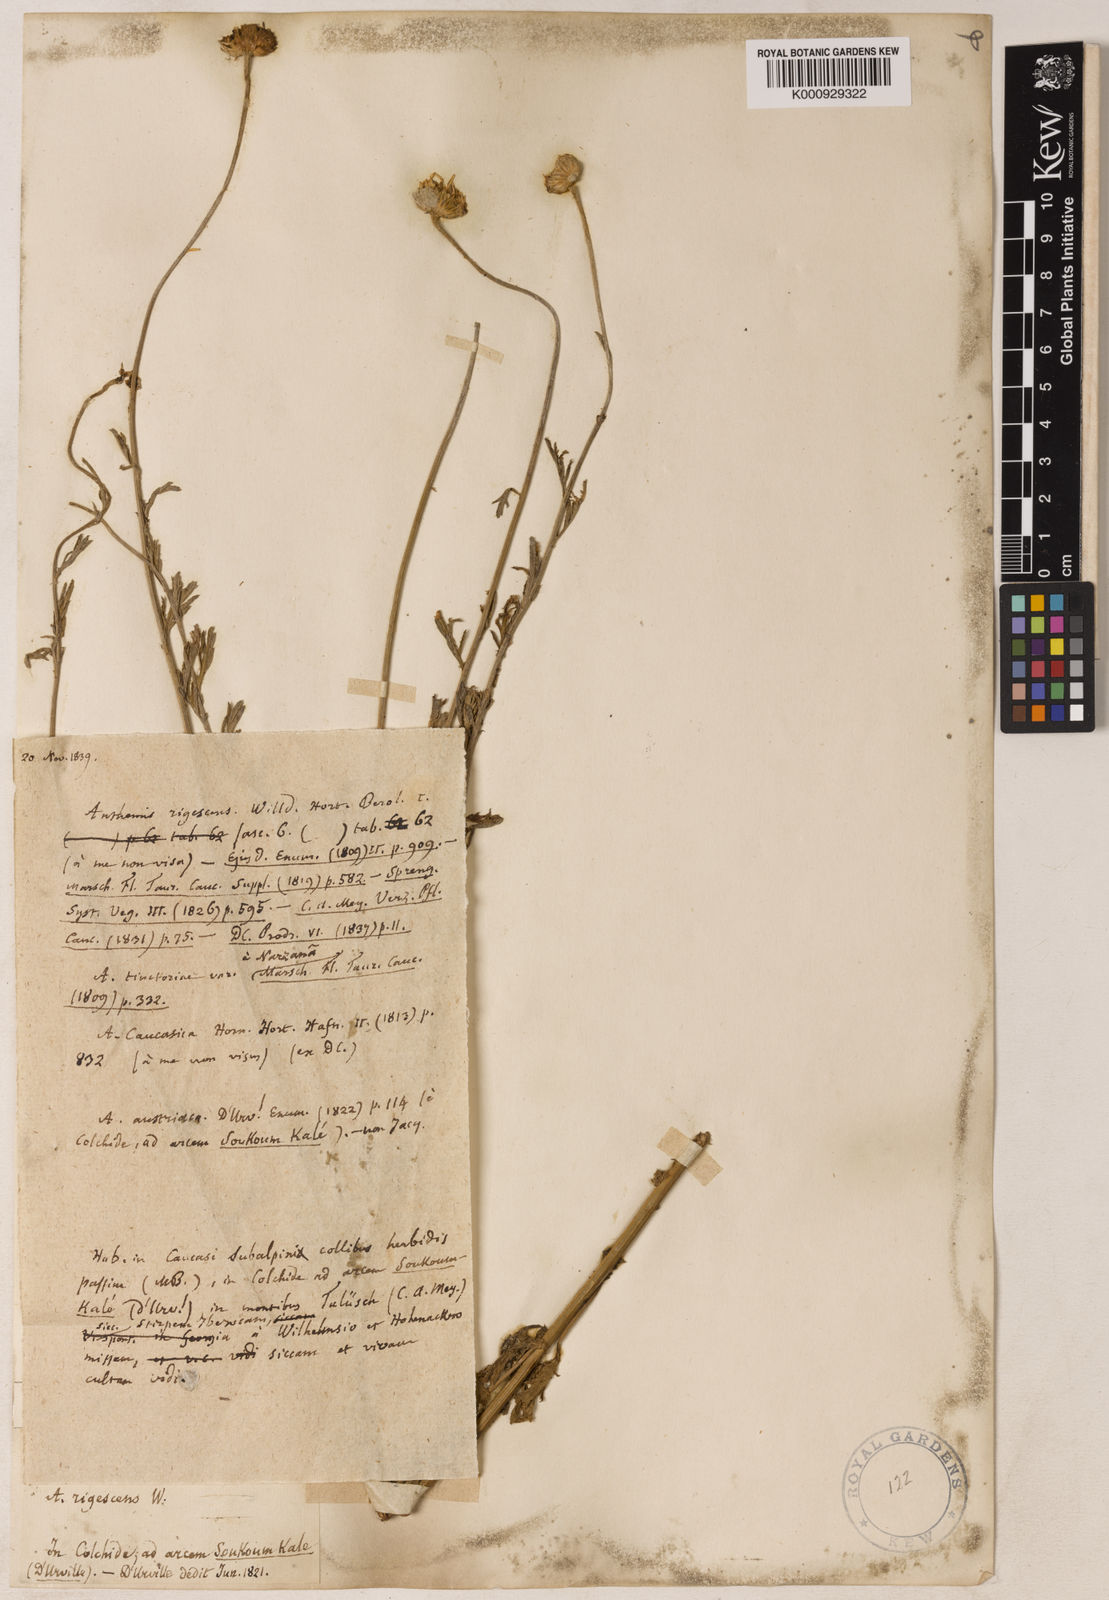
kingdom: Plantae
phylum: Tracheophyta
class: Magnoliopsida
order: Asterales
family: Asteraceae
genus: Cota
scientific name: Cota tinctoria
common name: Golden chamomile
